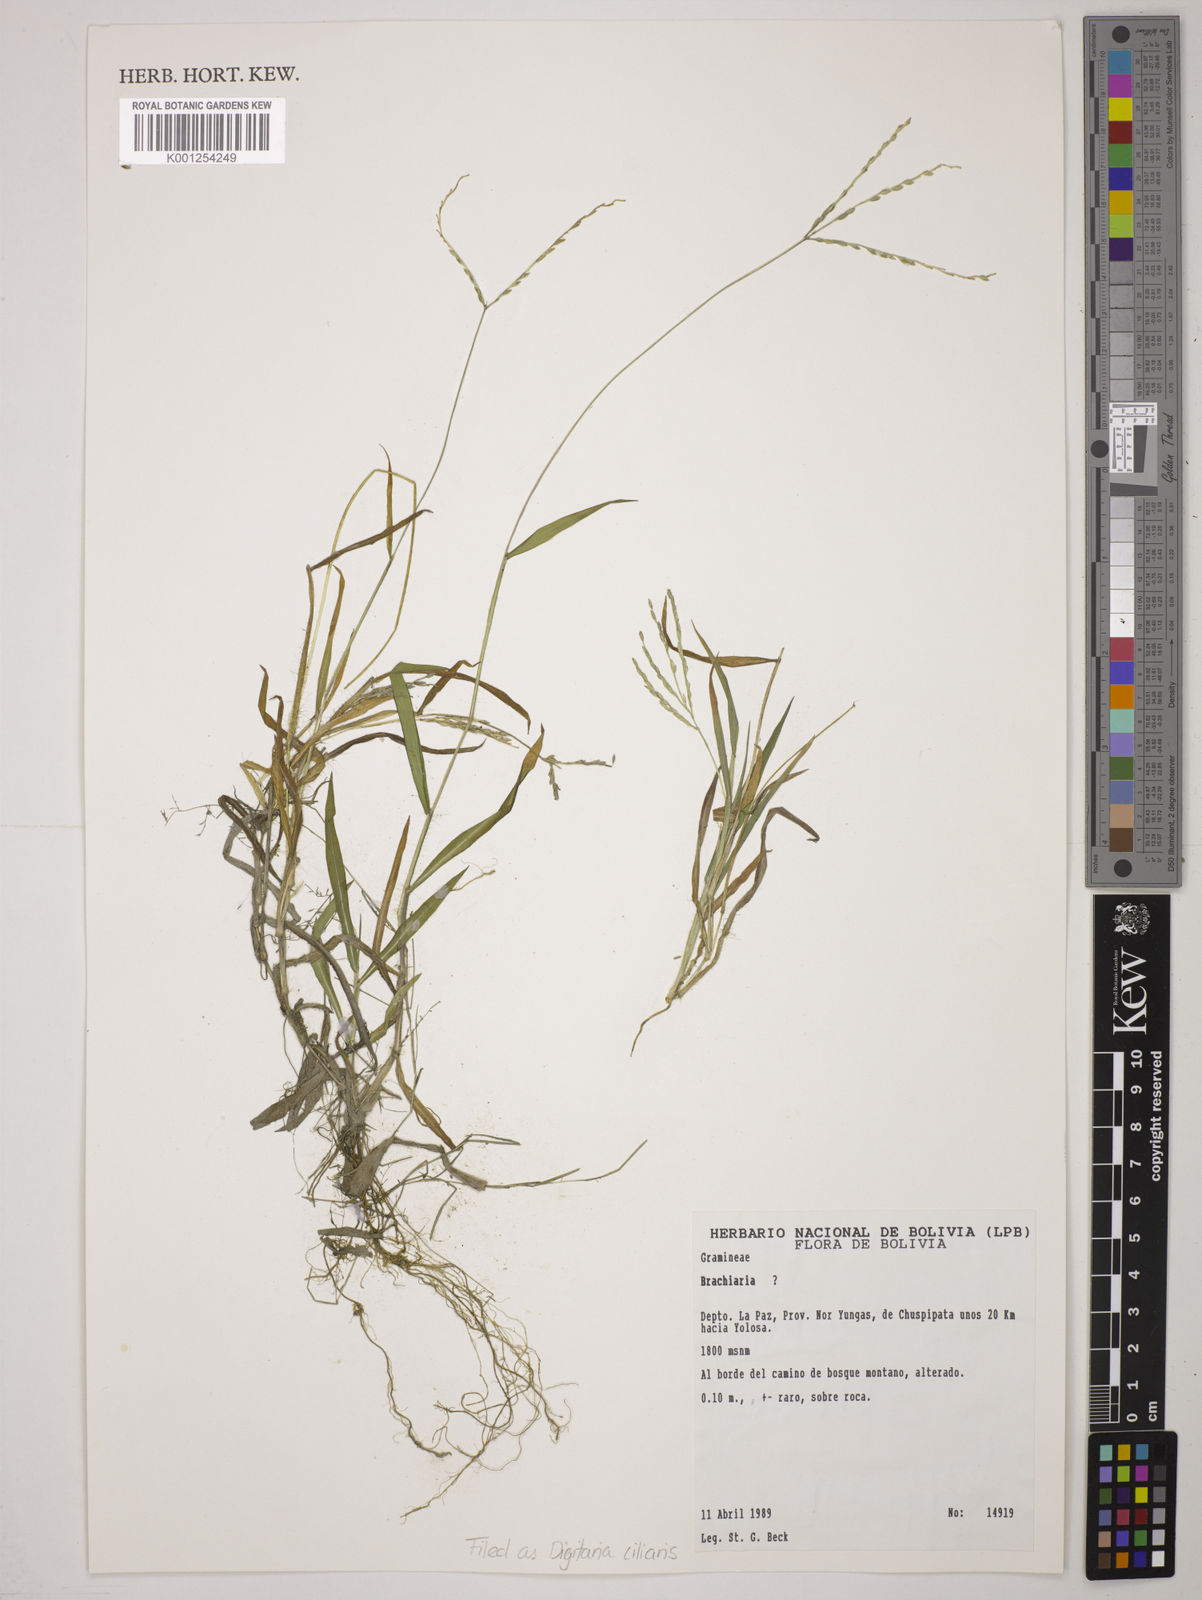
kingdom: Plantae
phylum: Tracheophyta
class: Liliopsida
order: Poales
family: Poaceae
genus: Digitaria
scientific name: Digitaria
